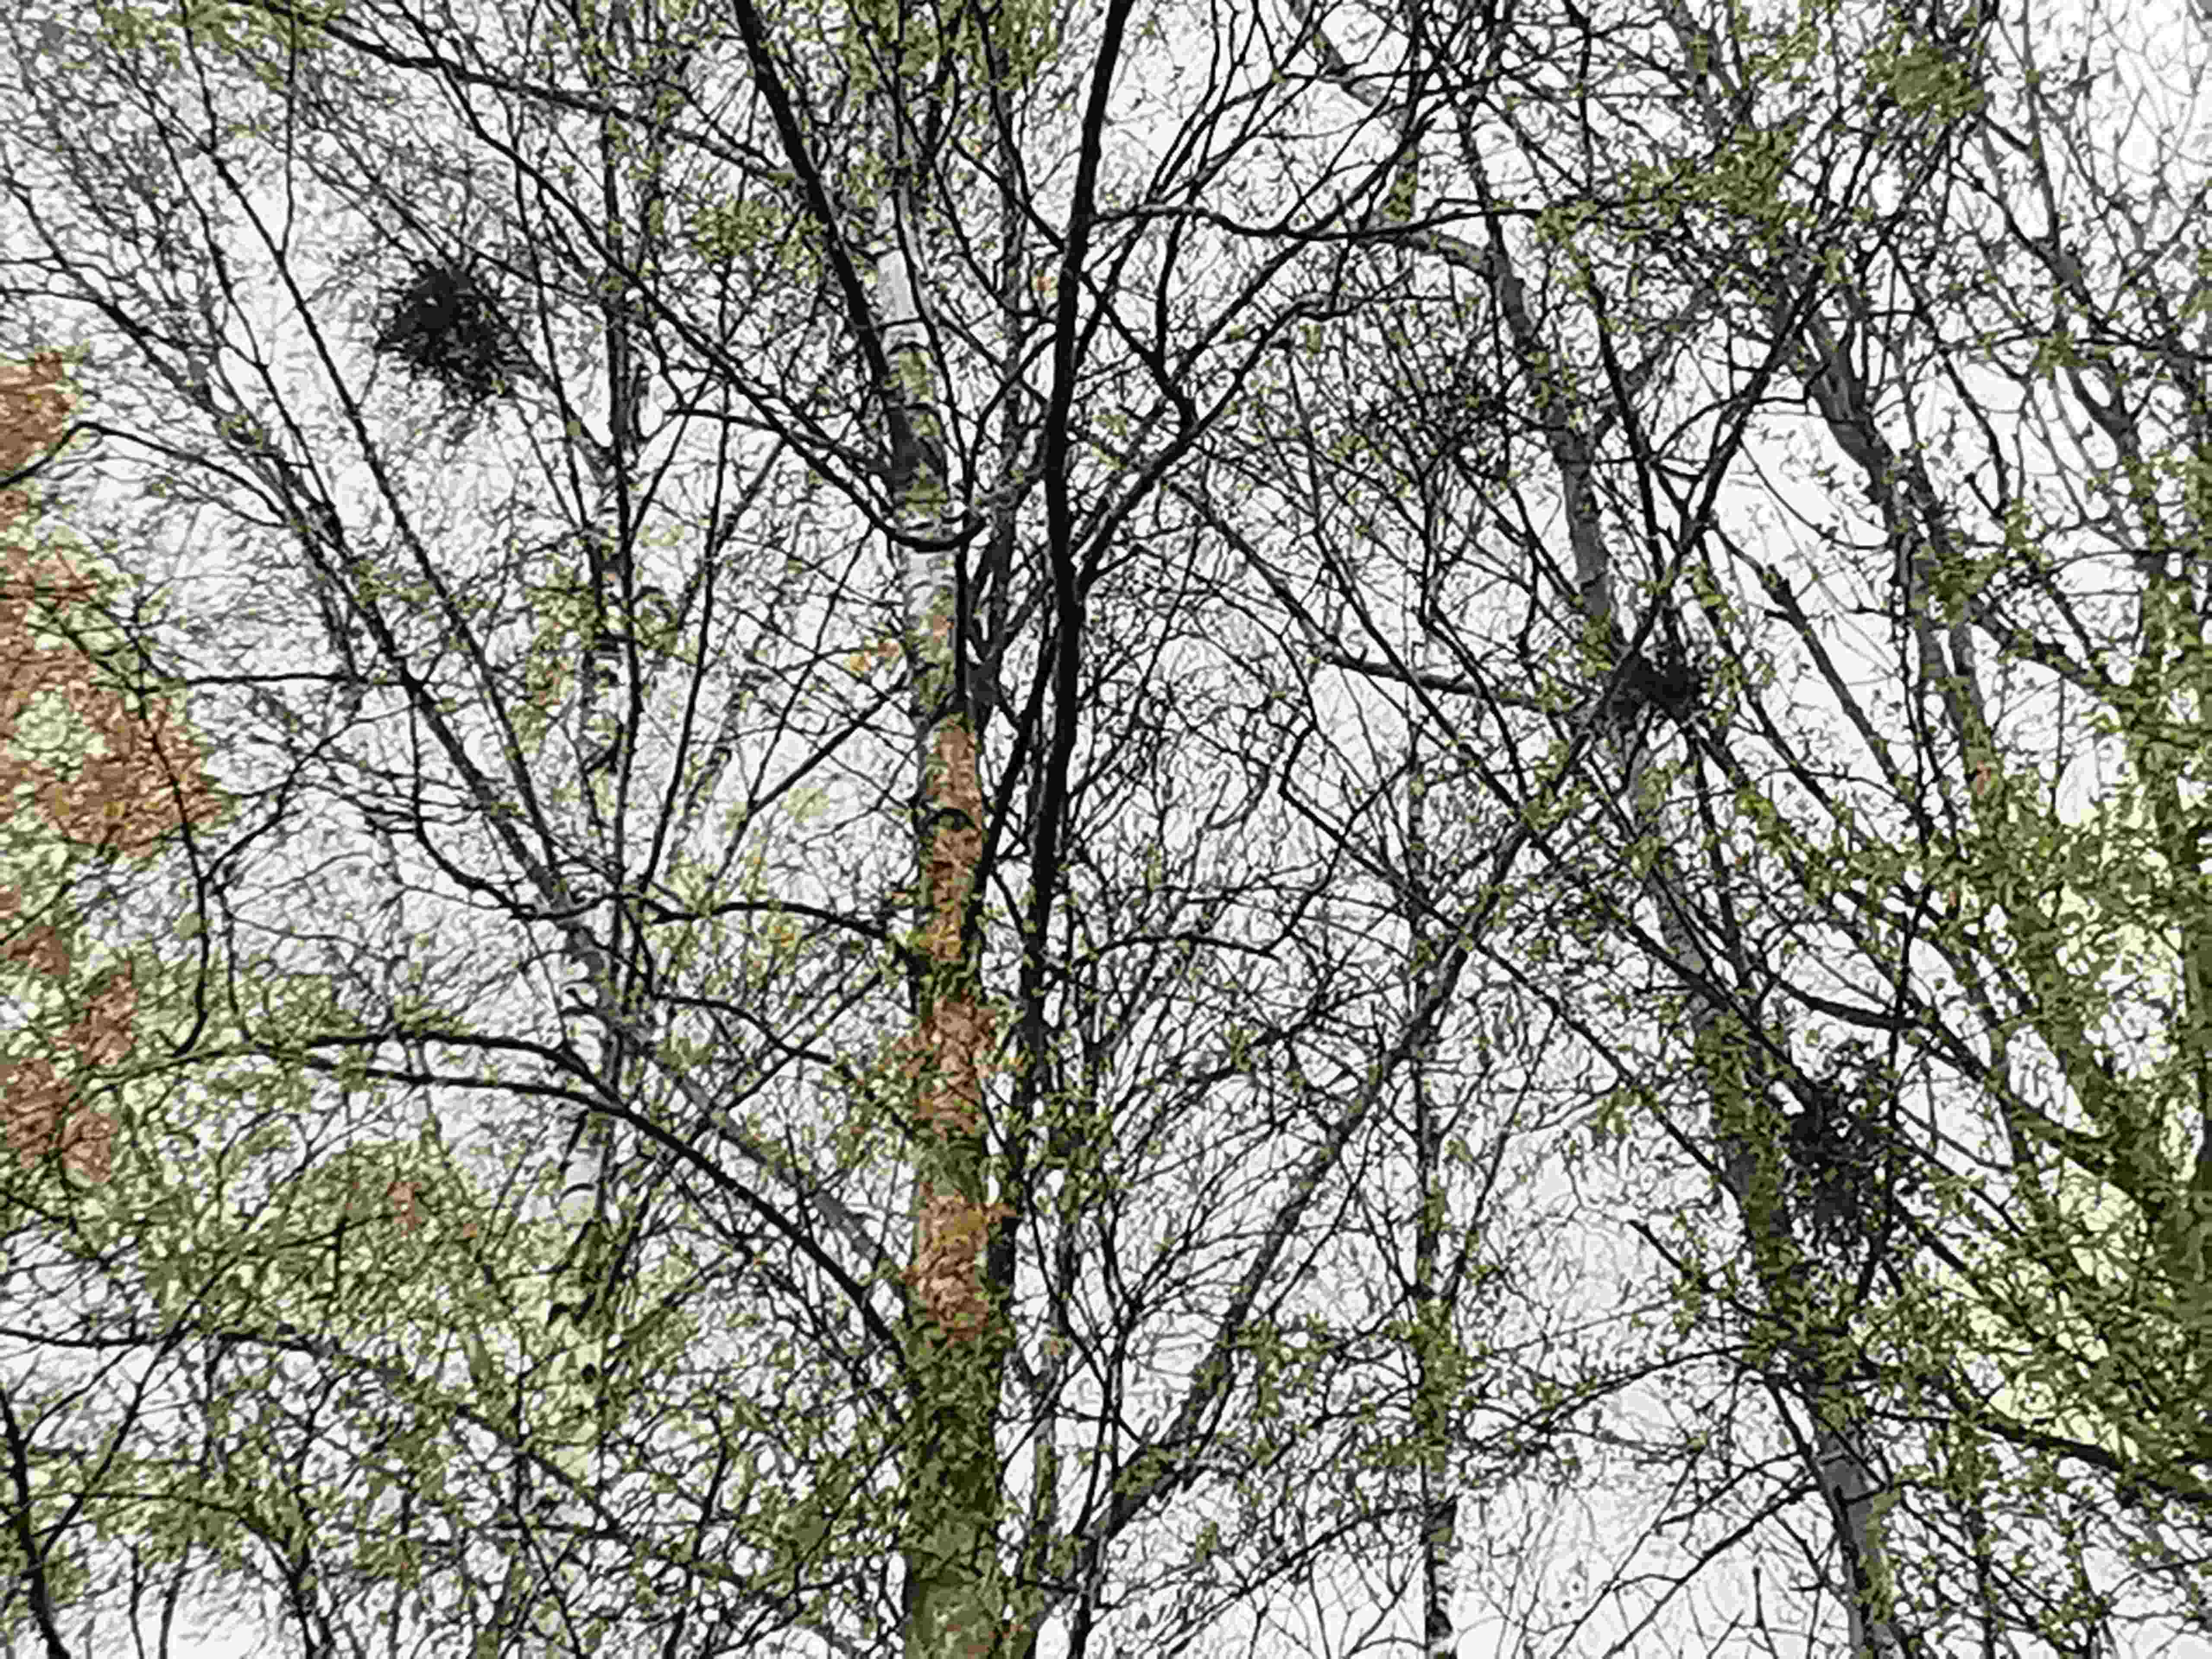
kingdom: Fungi
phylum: Ascomycota
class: Taphrinomycetes
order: Taphrinales
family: Taphrinaceae
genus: Taphrina
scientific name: Taphrina betulina
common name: hekse-sækdug
